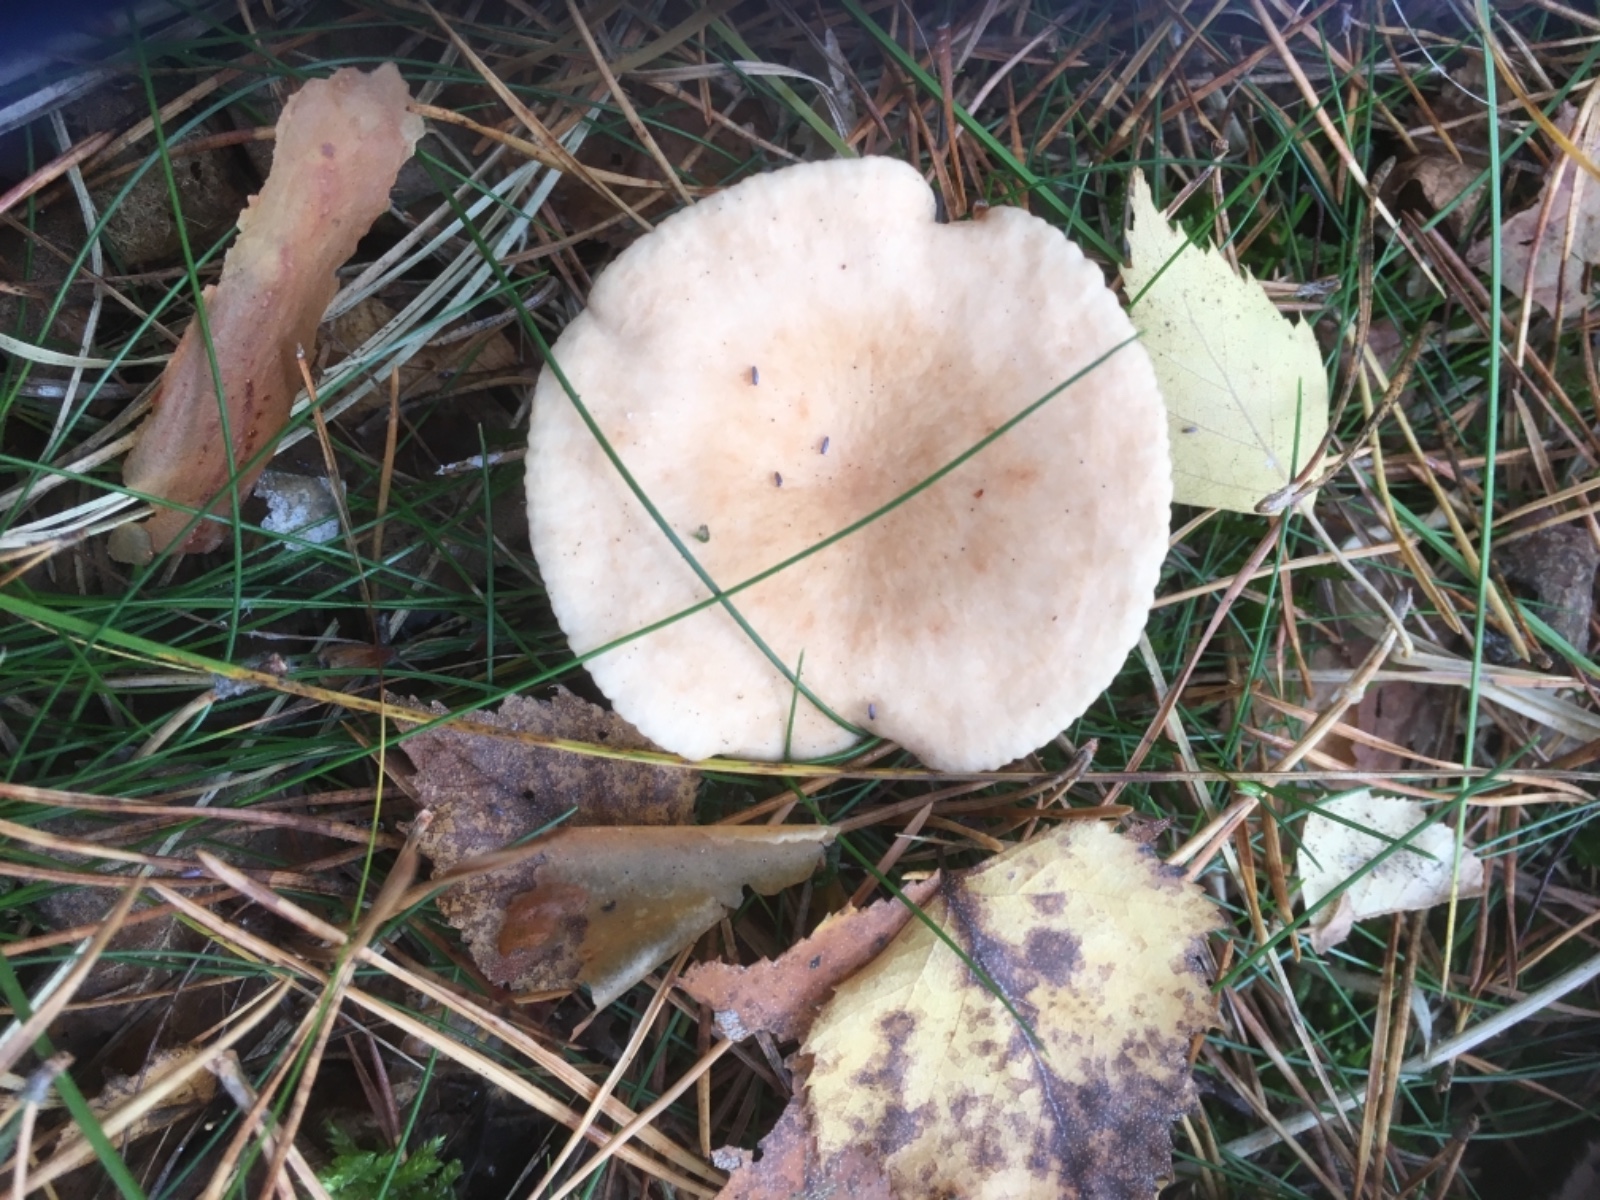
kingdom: Fungi
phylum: Basidiomycota
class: Agaricomycetes
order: Russulales
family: Russulaceae
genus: Lactarius
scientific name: Lactarius tabidus
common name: rynket mælkehat
